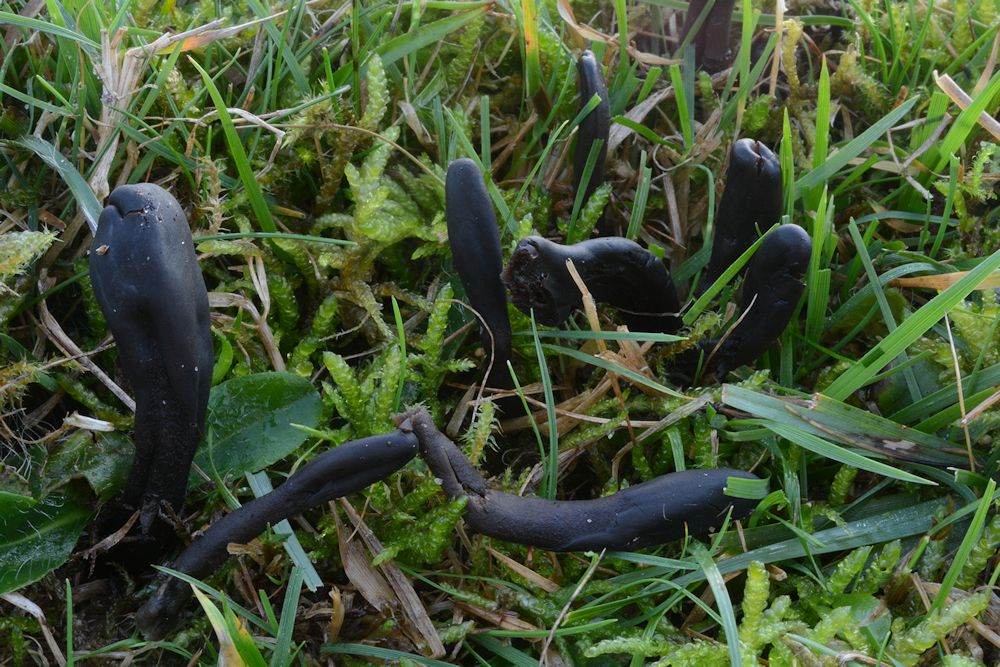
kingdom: Fungi
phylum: Ascomycota
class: Geoglossomycetes
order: Geoglossales
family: Geoglossaceae
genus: Geoglossum
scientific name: Geoglossum atropurpureum
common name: purpursort farvetunge
